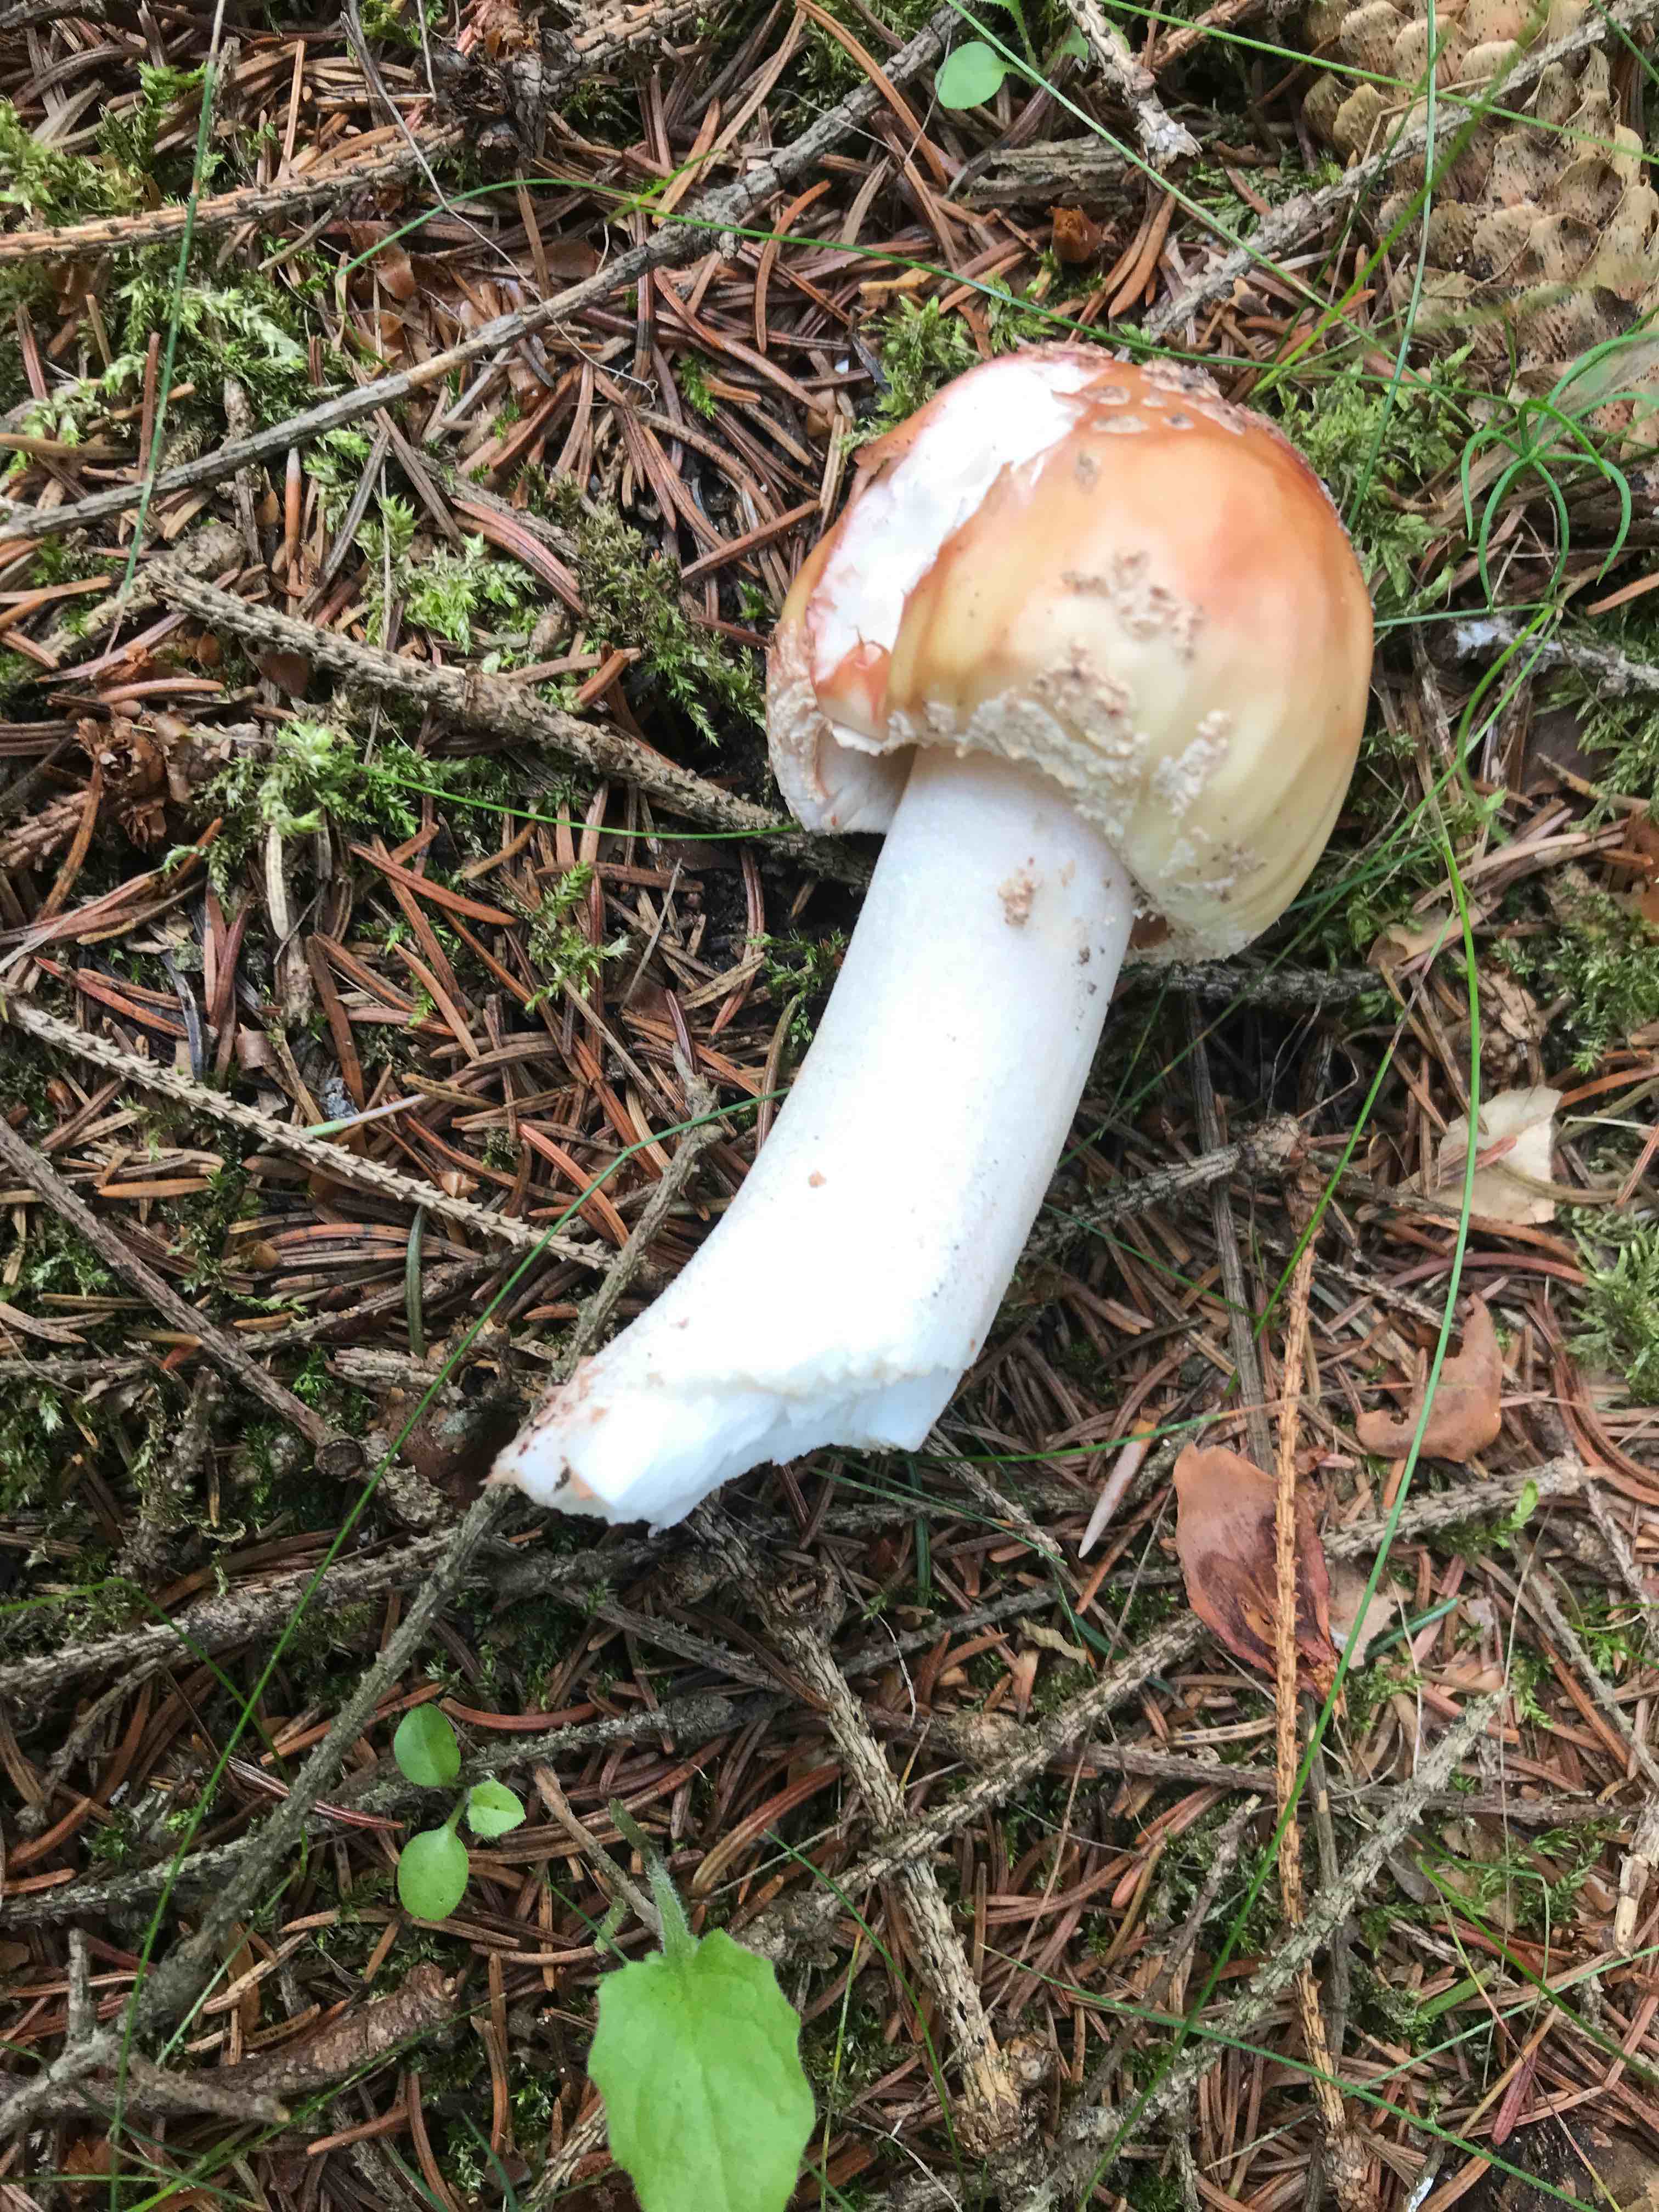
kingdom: Fungi
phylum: Basidiomycota
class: Agaricomycetes
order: Agaricales
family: Amanitaceae
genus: Amanita
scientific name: Amanita rubescens
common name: rødmende fluesvamp
